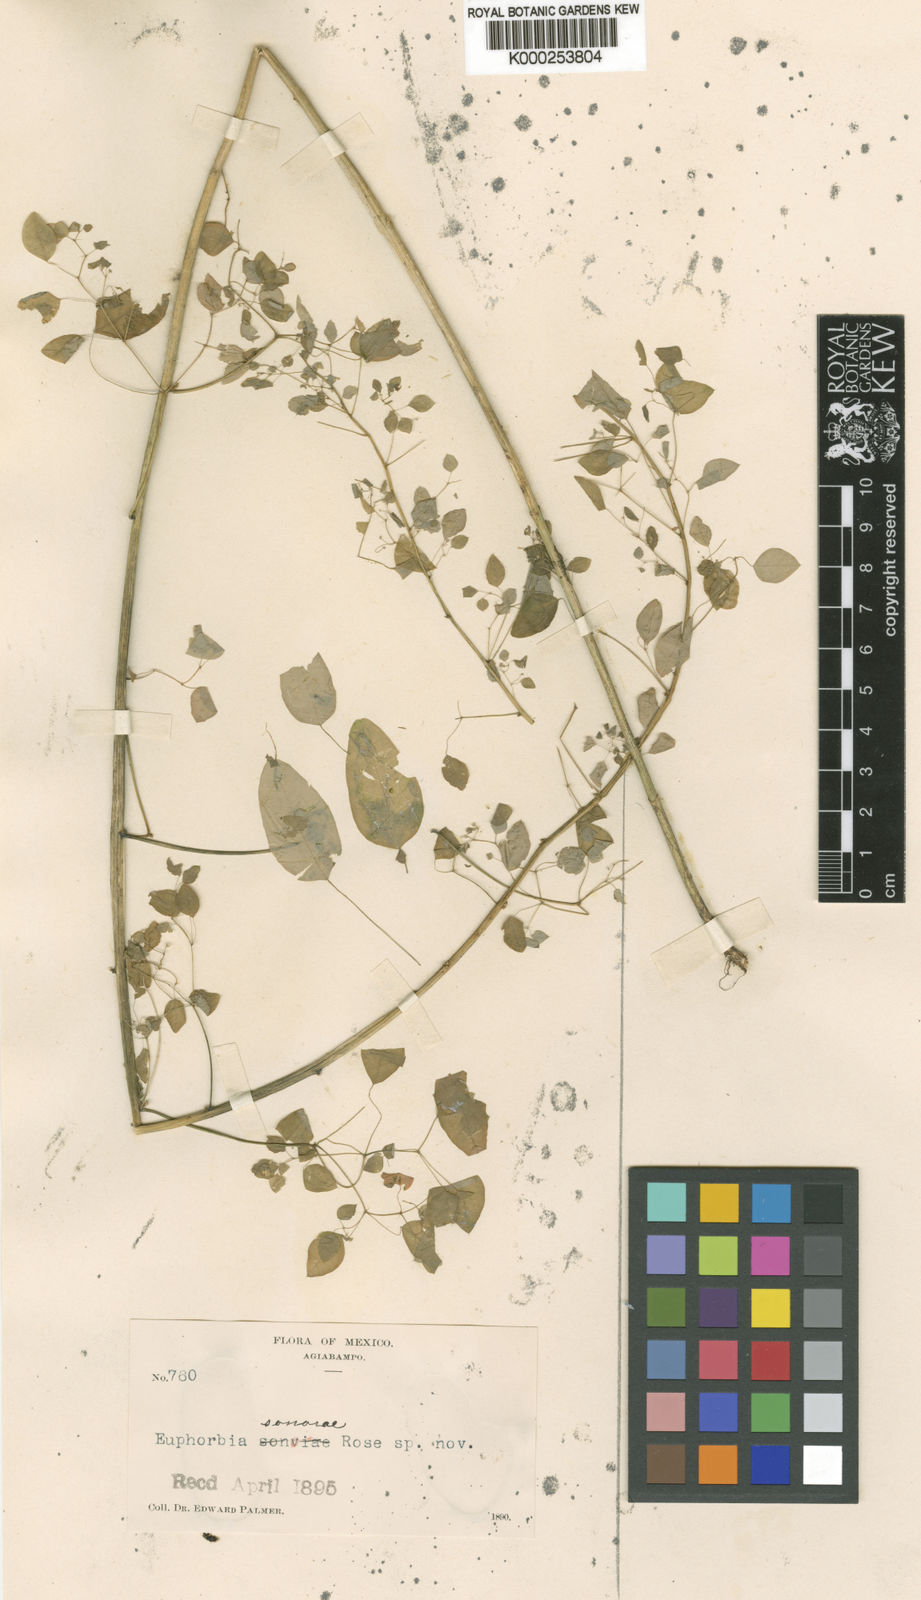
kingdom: Plantae
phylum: Tracheophyta
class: Magnoliopsida
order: Malpighiales
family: Euphorbiaceae
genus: Euphorbia
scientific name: Euphorbia adiantoides
